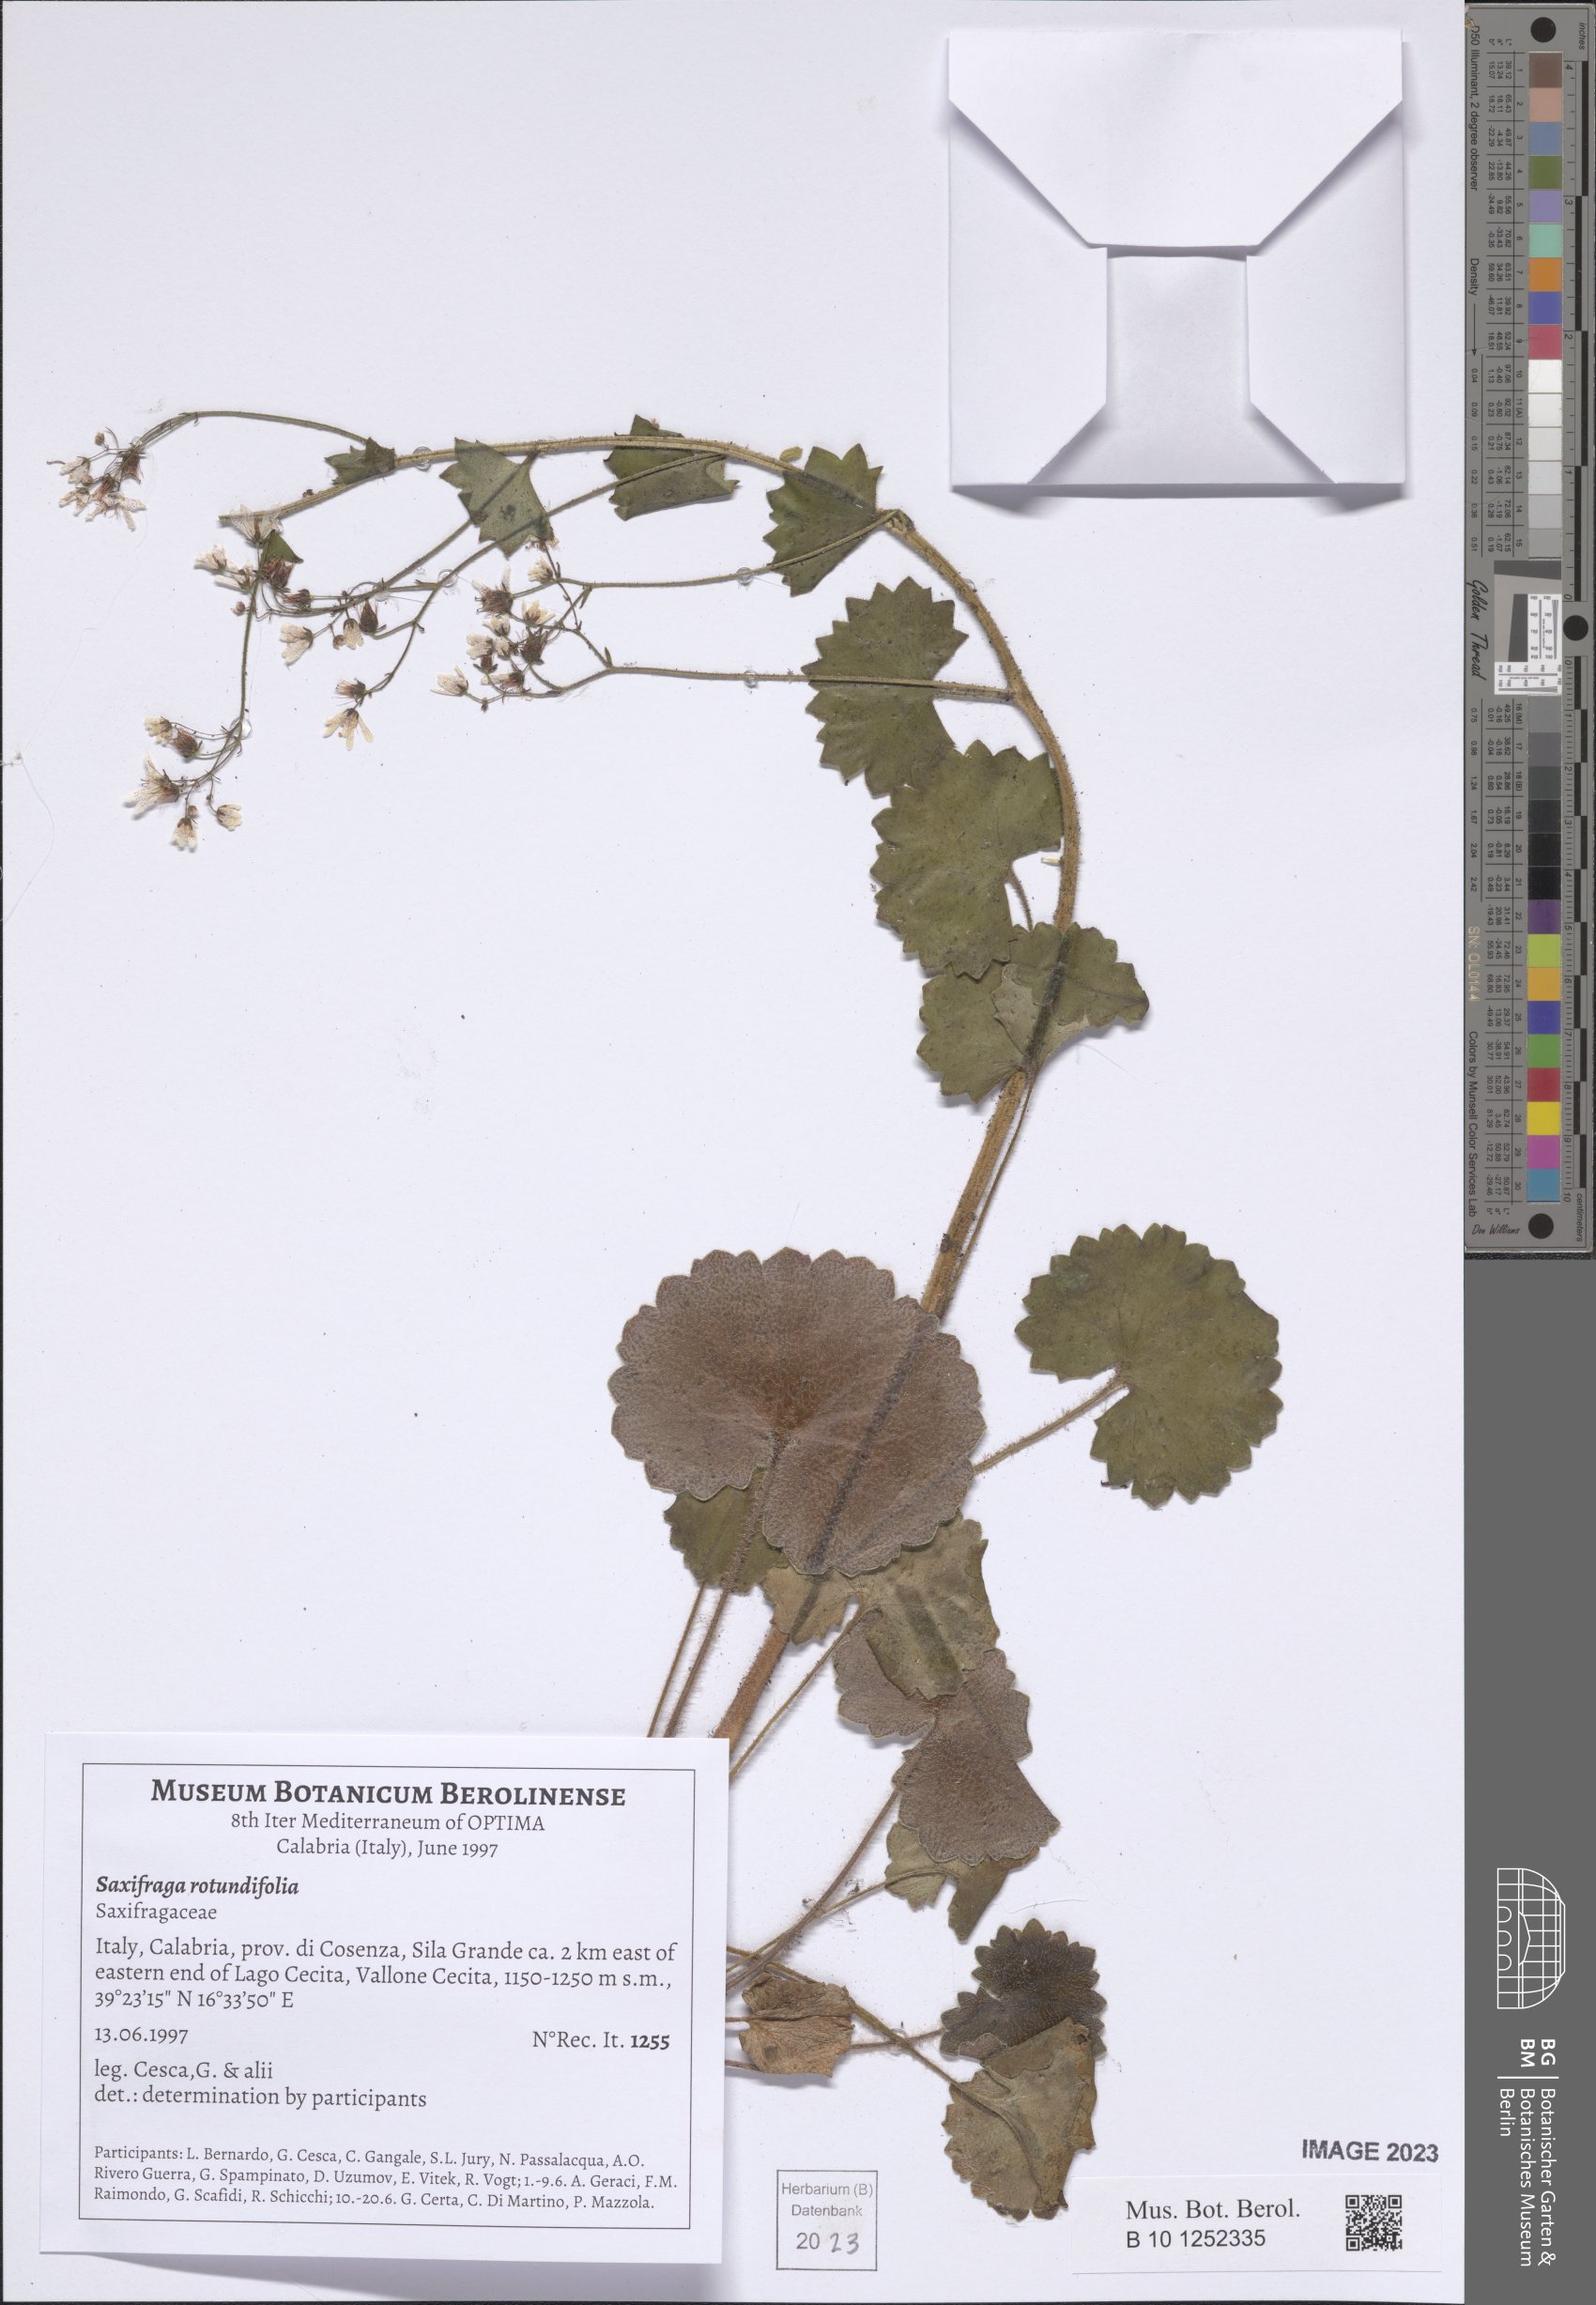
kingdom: Plantae
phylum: Tracheophyta
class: Magnoliopsida
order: Saxifragales
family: Saxifragaceae
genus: Saxifraga
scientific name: Saxifraga rotundifolia
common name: Round-leaved saxifrage
